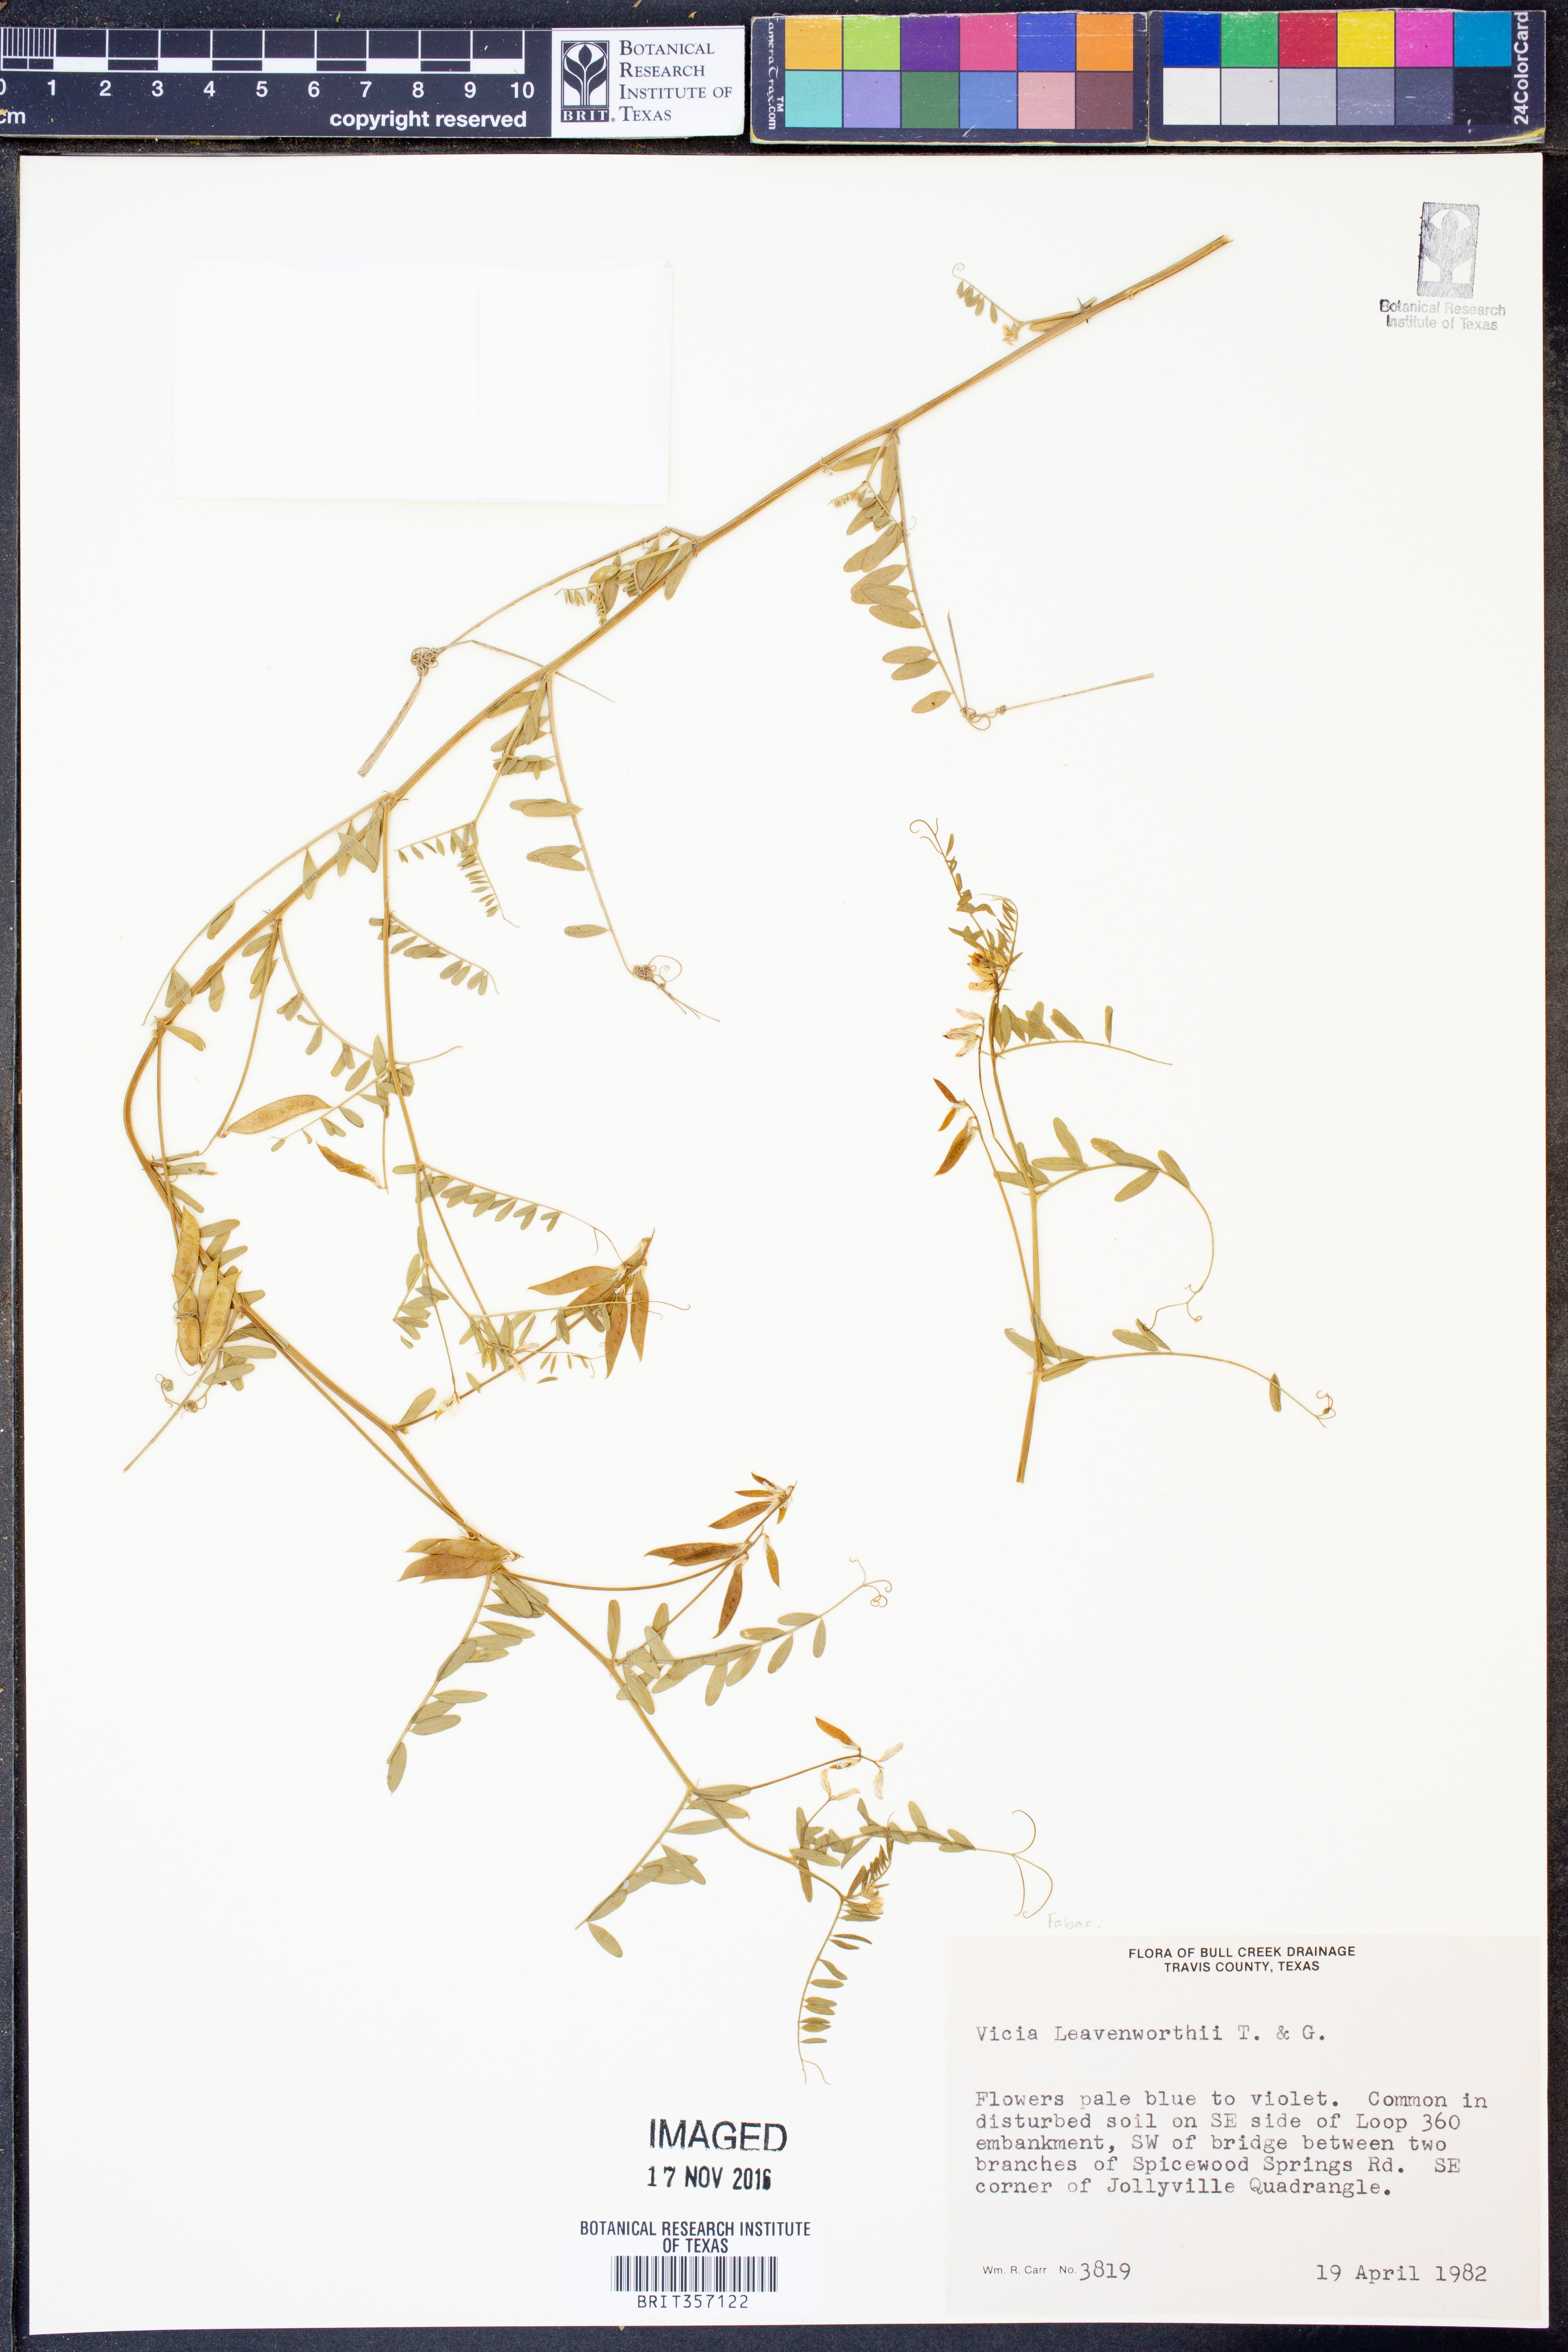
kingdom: Plantae
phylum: Tracheophyta
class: Magnoliopsida
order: Fabales
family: Fabaceae
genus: Vicia
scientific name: Vicia ludoviciana
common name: Louisiana vetch
